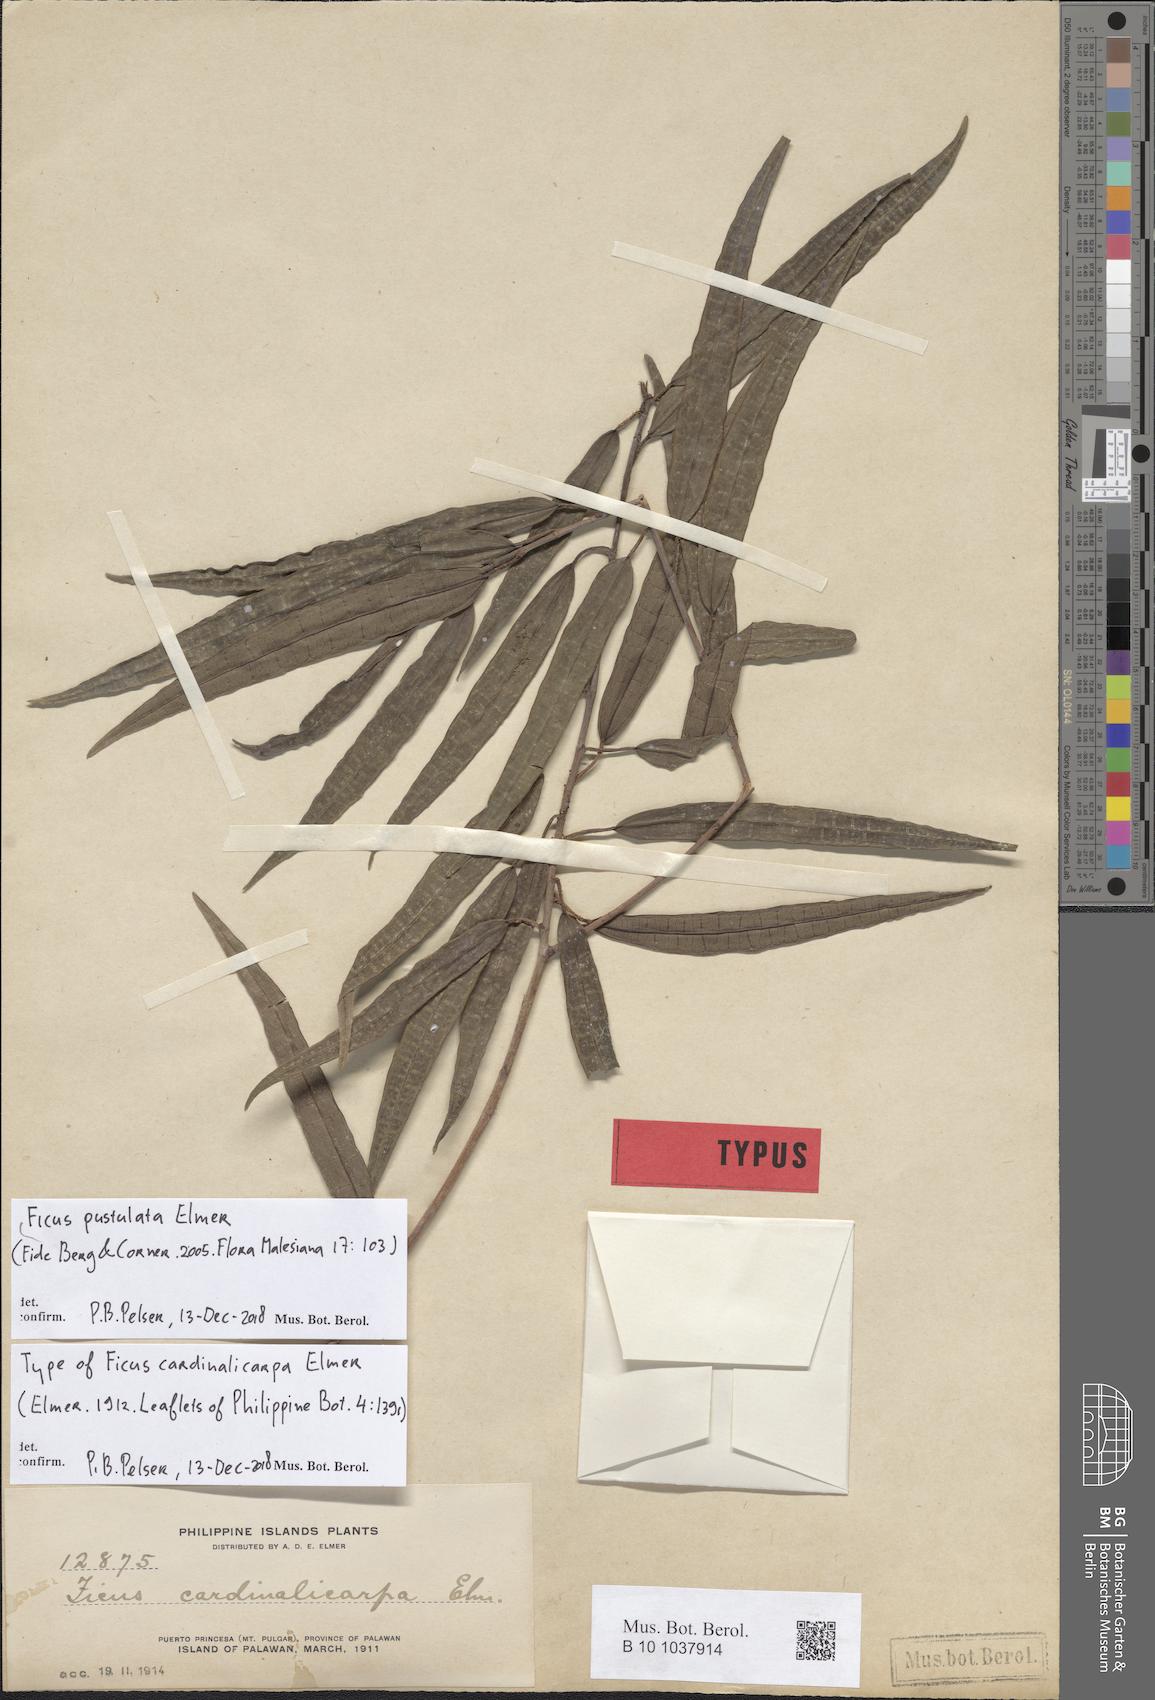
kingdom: Plantae
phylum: Tracheophyta
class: Magnoliopsida
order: Rosales
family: Moraceae
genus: Ficus
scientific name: Ficus pustulata
